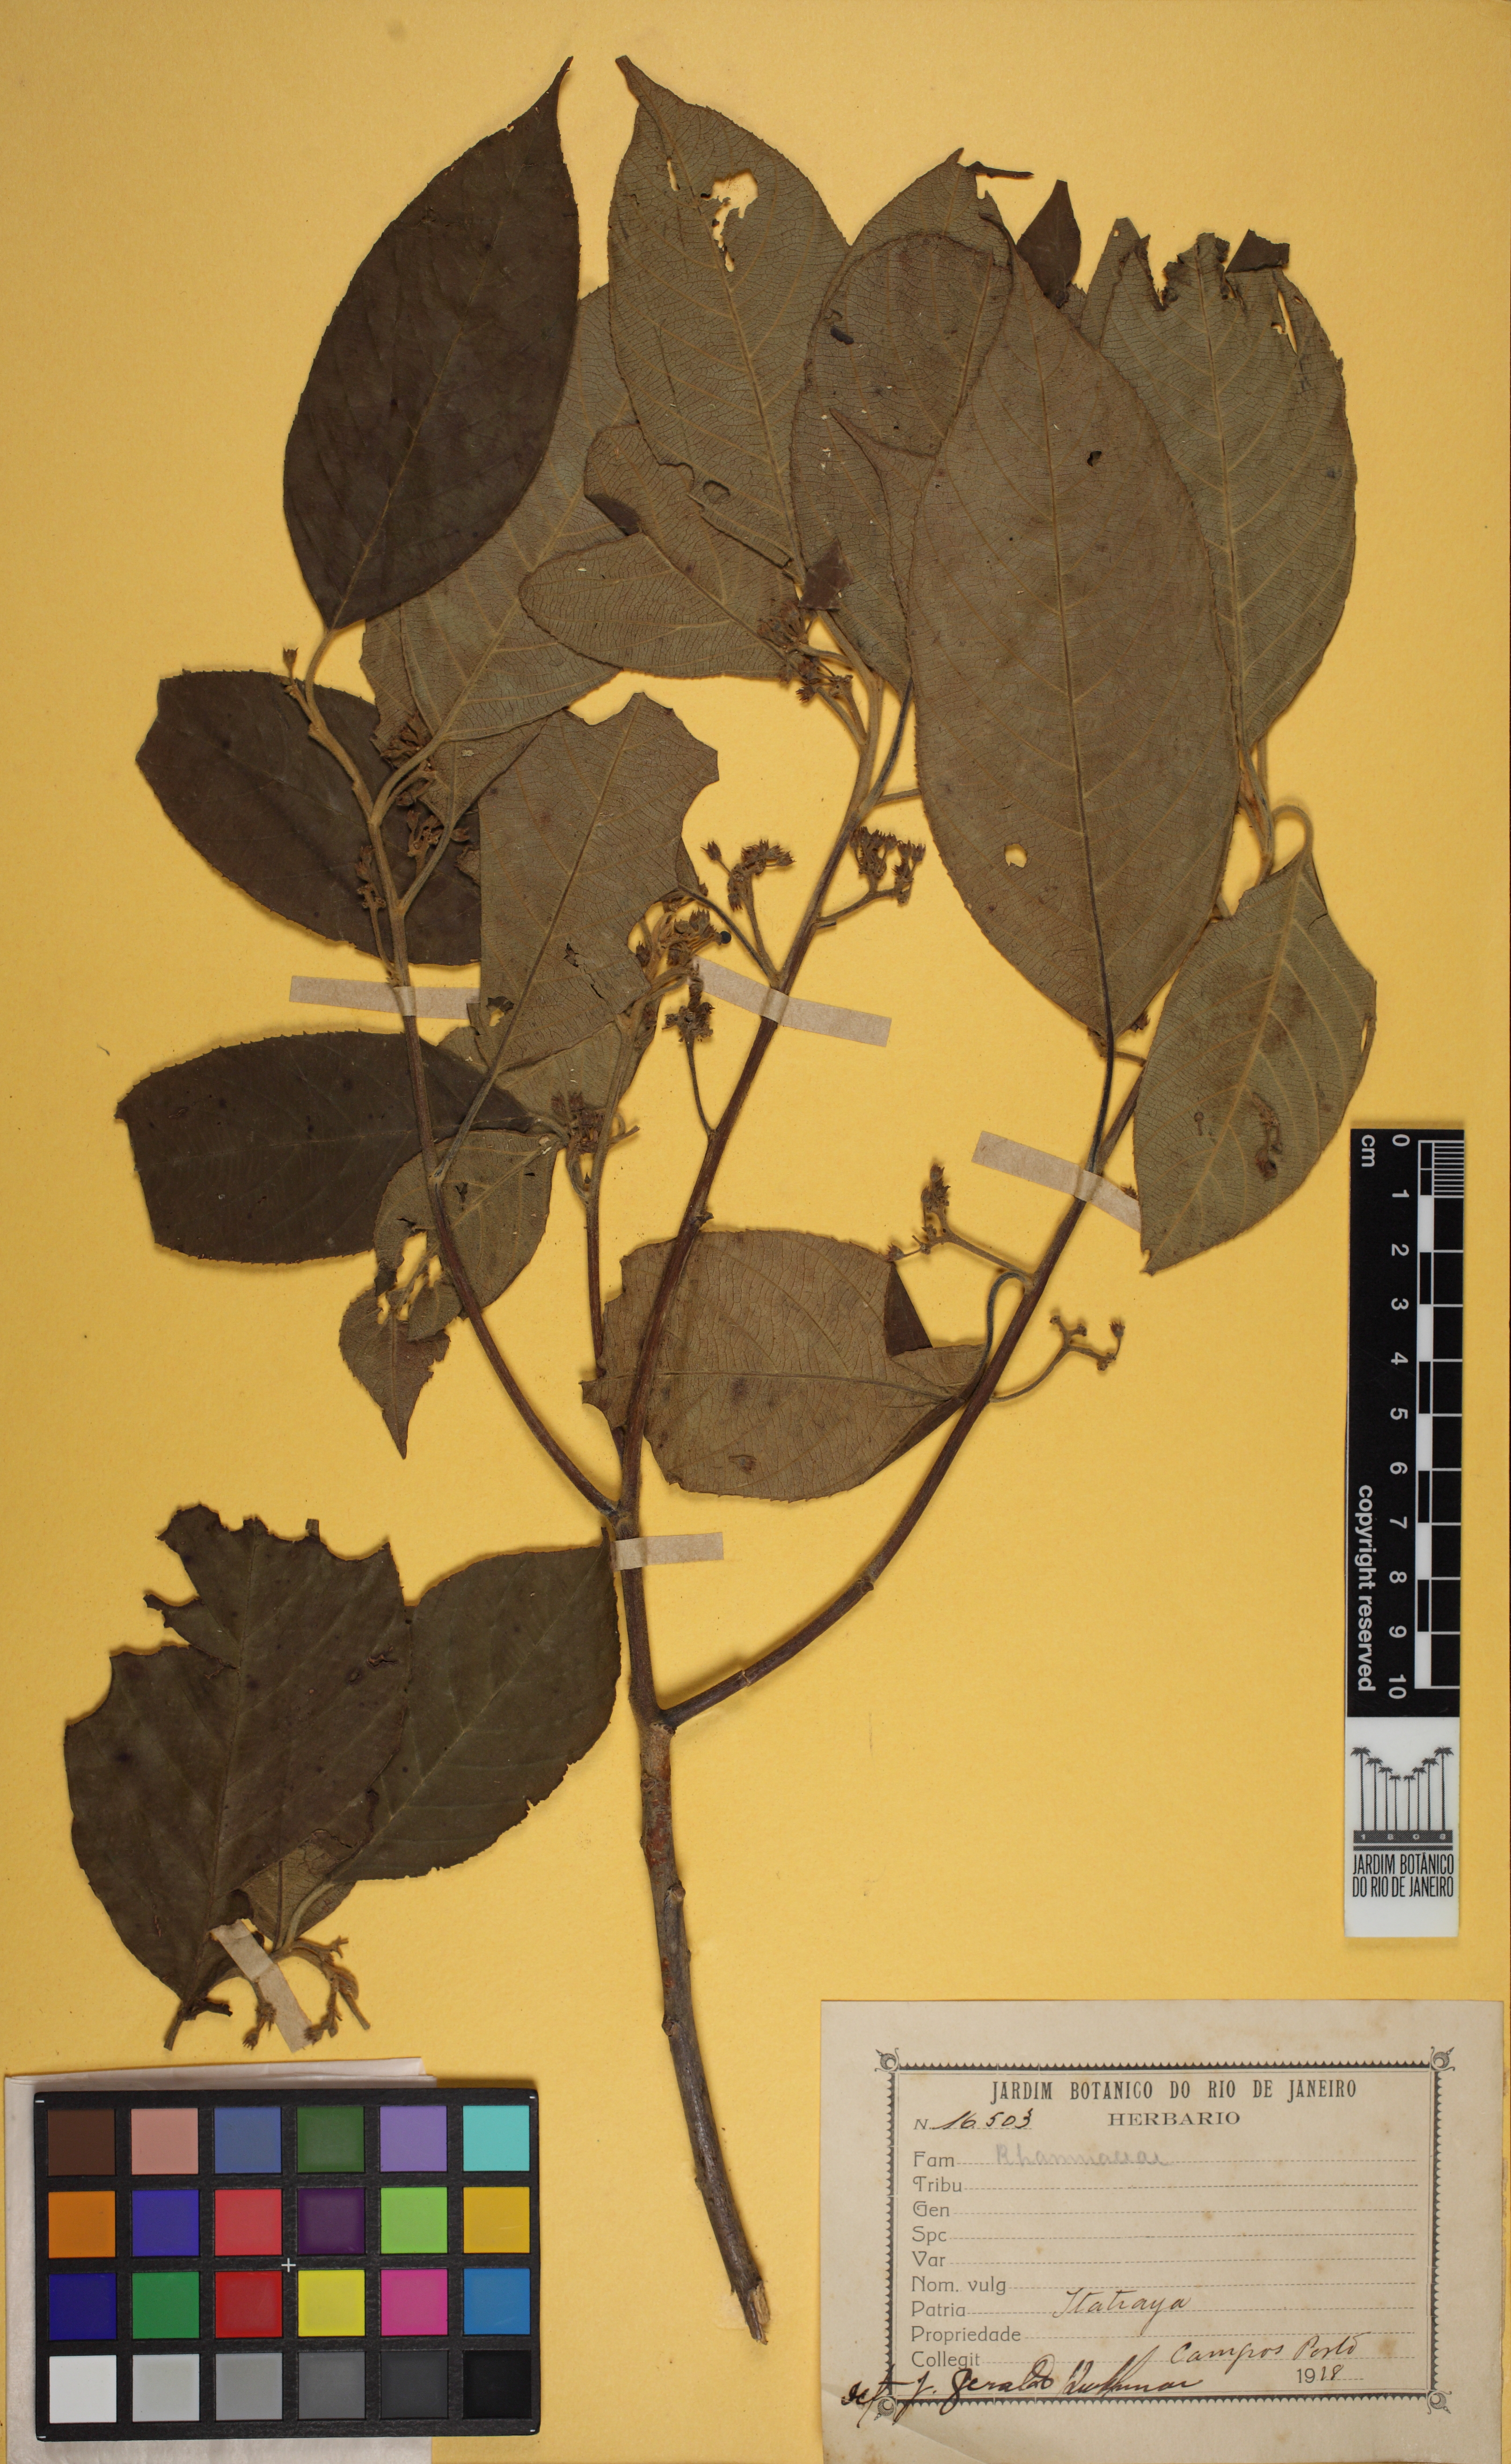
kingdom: Plantae
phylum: Tracheophyta
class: Magnoliopsida
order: Rosales
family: Rhamnaceae
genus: Frangula
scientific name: Frangula sphaerosperma
